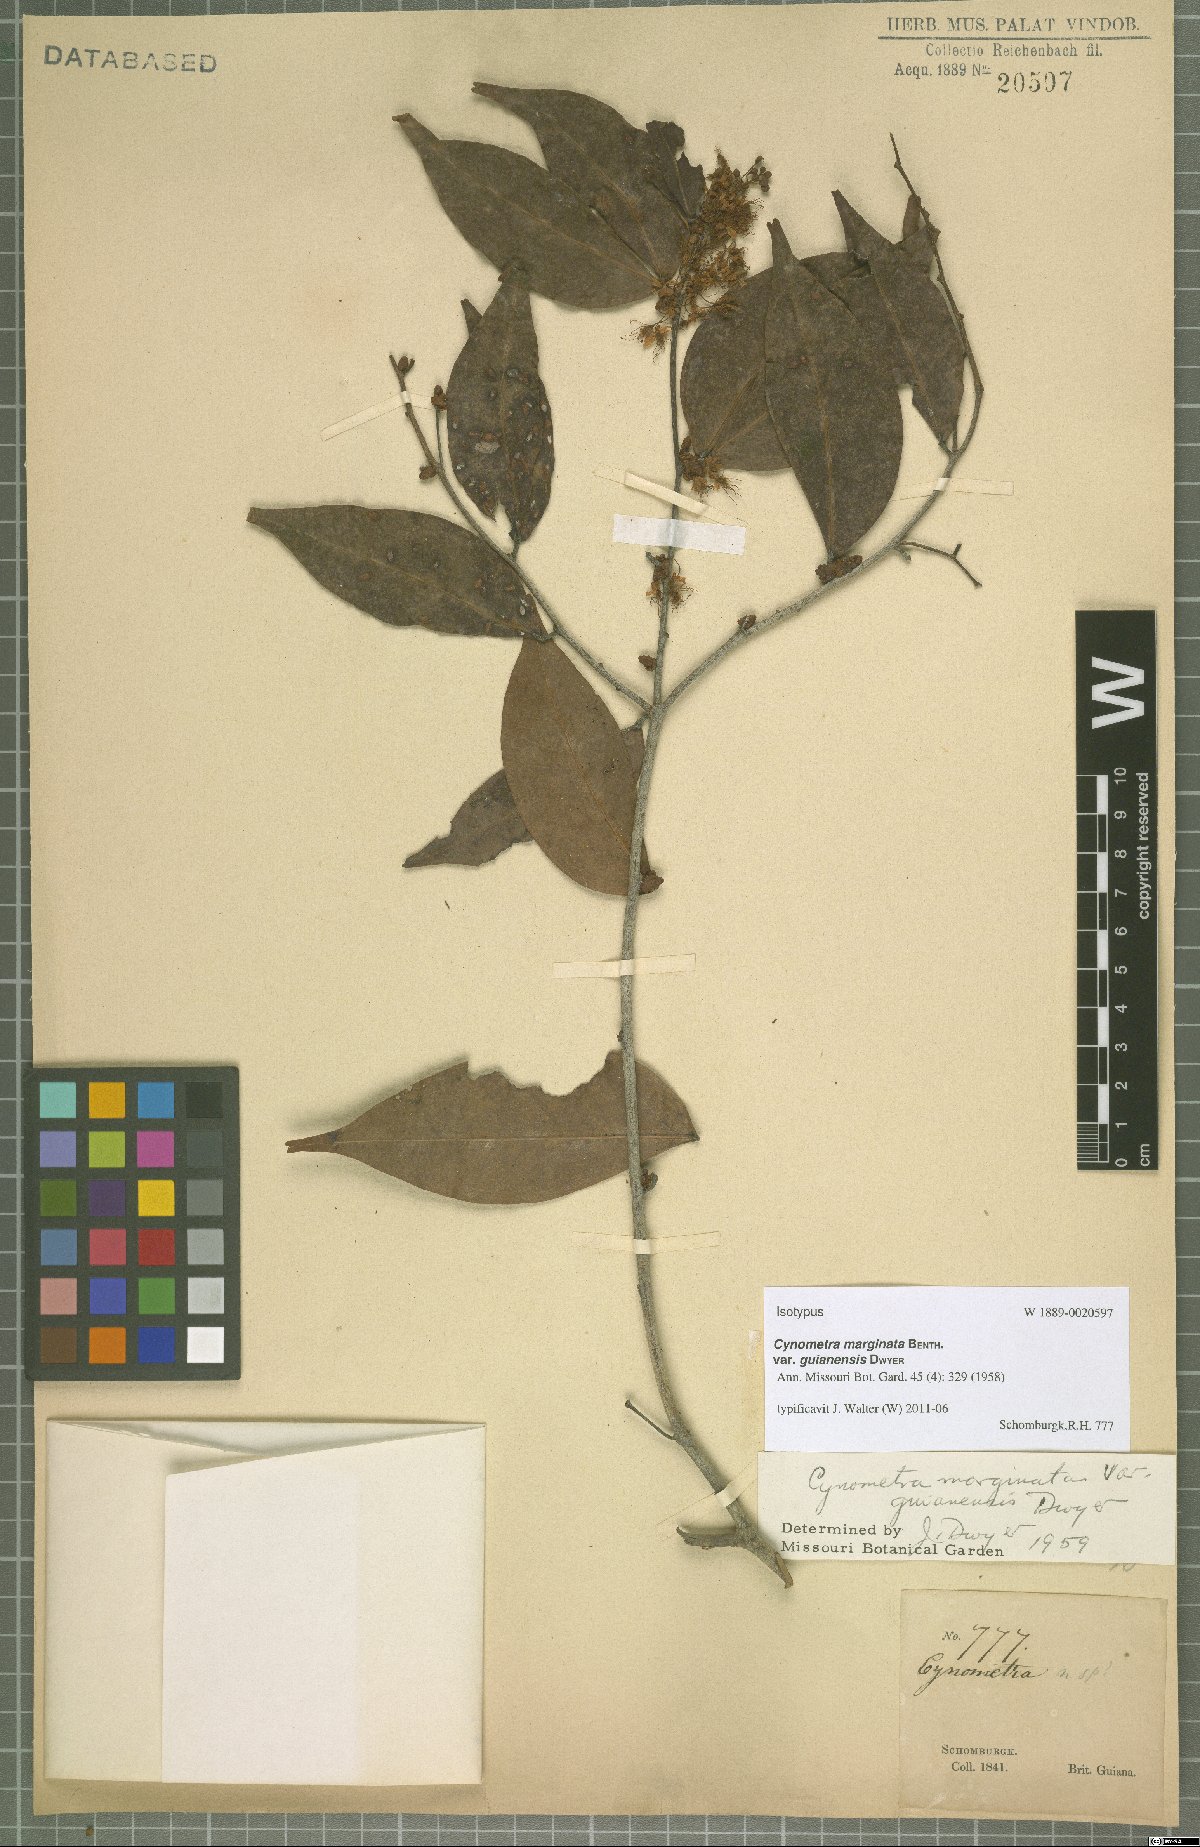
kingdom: Plantae
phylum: Tracheophyta
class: Magnoliopsida
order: Fabales
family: Fabaceae
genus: Cynometra
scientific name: Cynometra marginata
